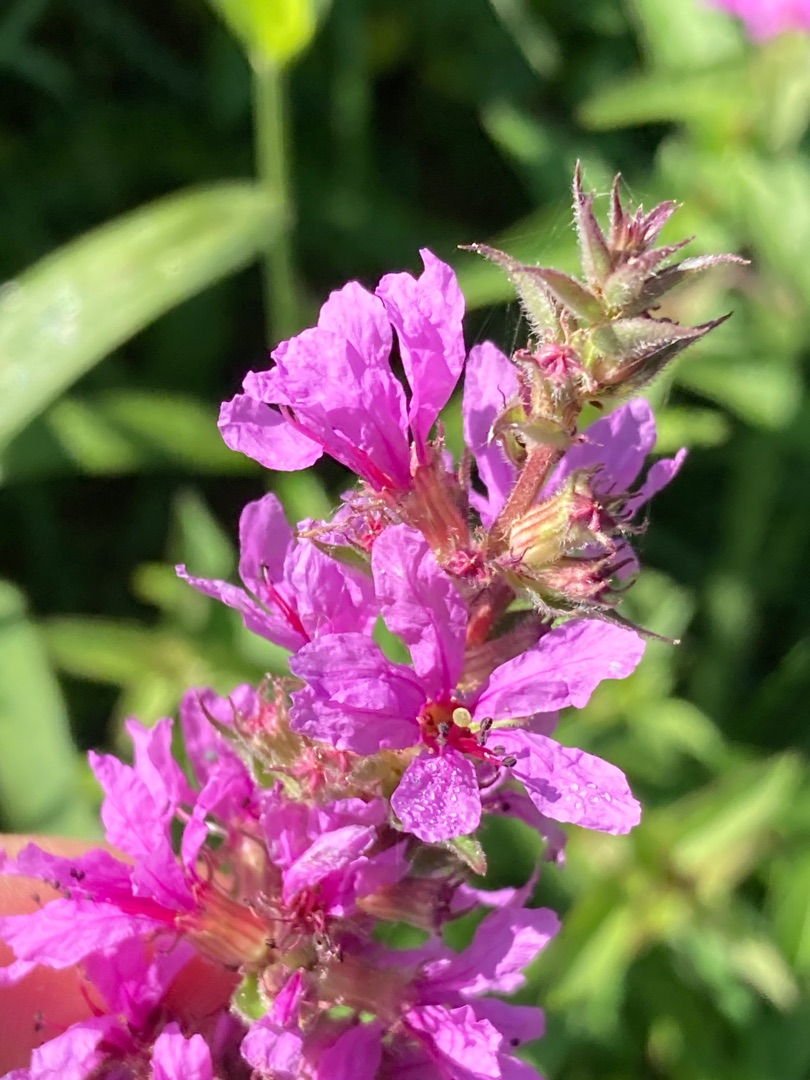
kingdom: Plantae
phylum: Tracheophyta
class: Magnoliopsida
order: Myrtales
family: Lythraceae
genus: Lythrum
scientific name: Lythrum salicaria
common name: Kattehale
